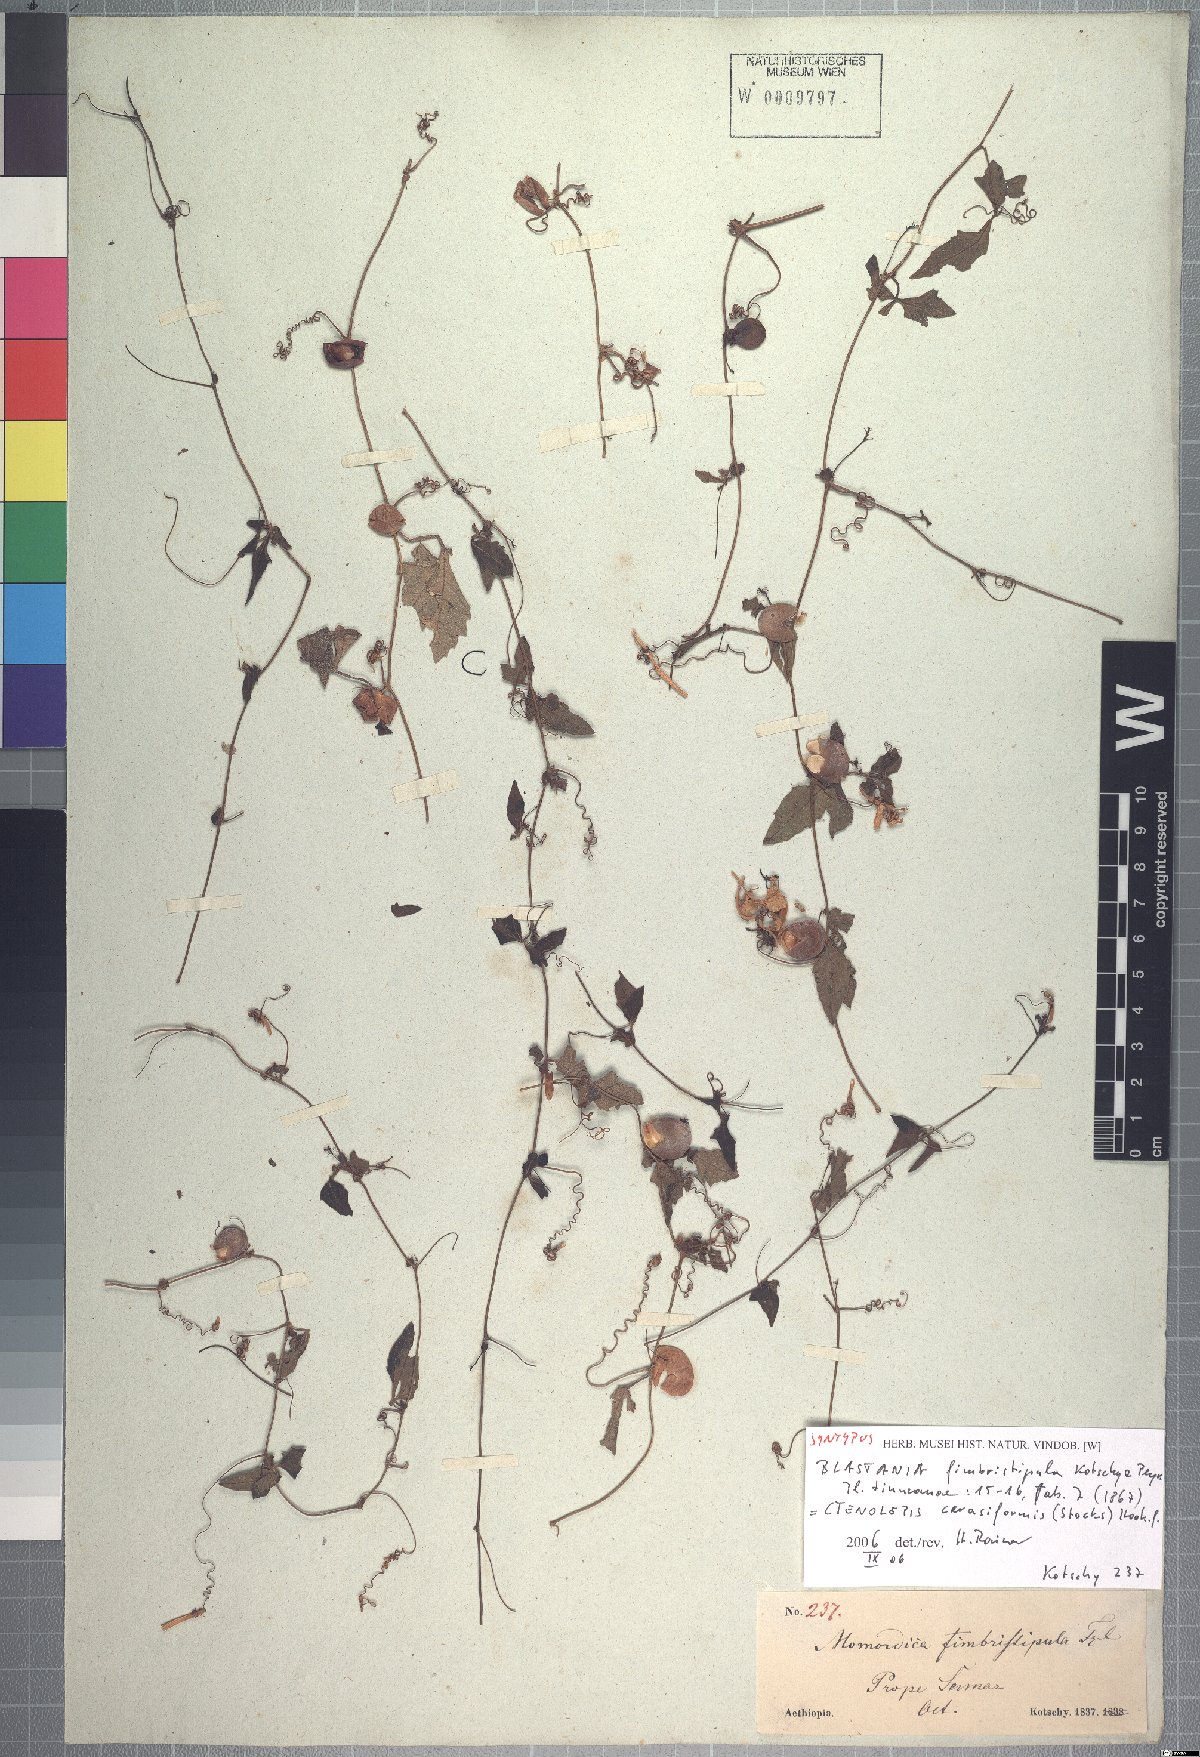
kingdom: Plantae
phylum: Tracheophyta
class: Magnoliopsida
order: Cucurbitales
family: Cucurbitaceae
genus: Blastania
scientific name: Blastania cerasiformis
